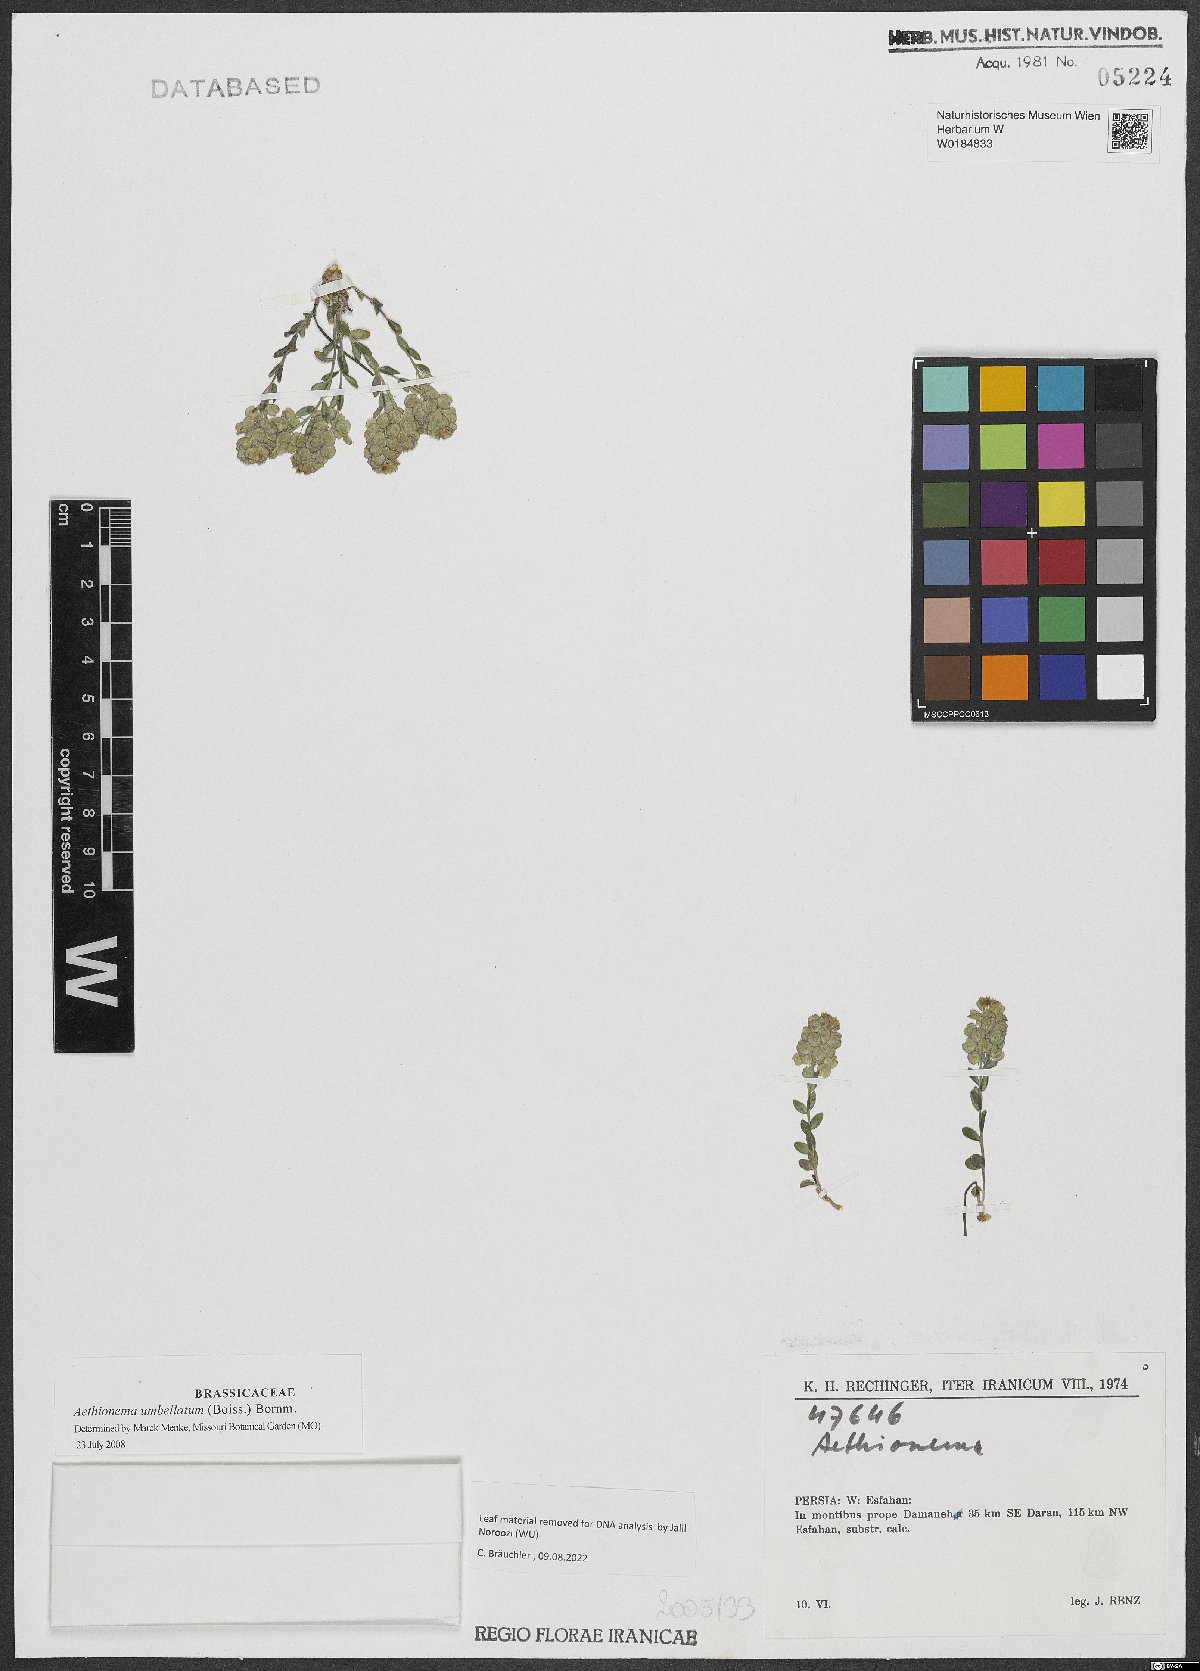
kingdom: Plantae
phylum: Tracheophyta
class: Magnoliopsida
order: Brassicales
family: Brassicaceae
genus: Aethionema
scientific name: Aethionema umbellatum
